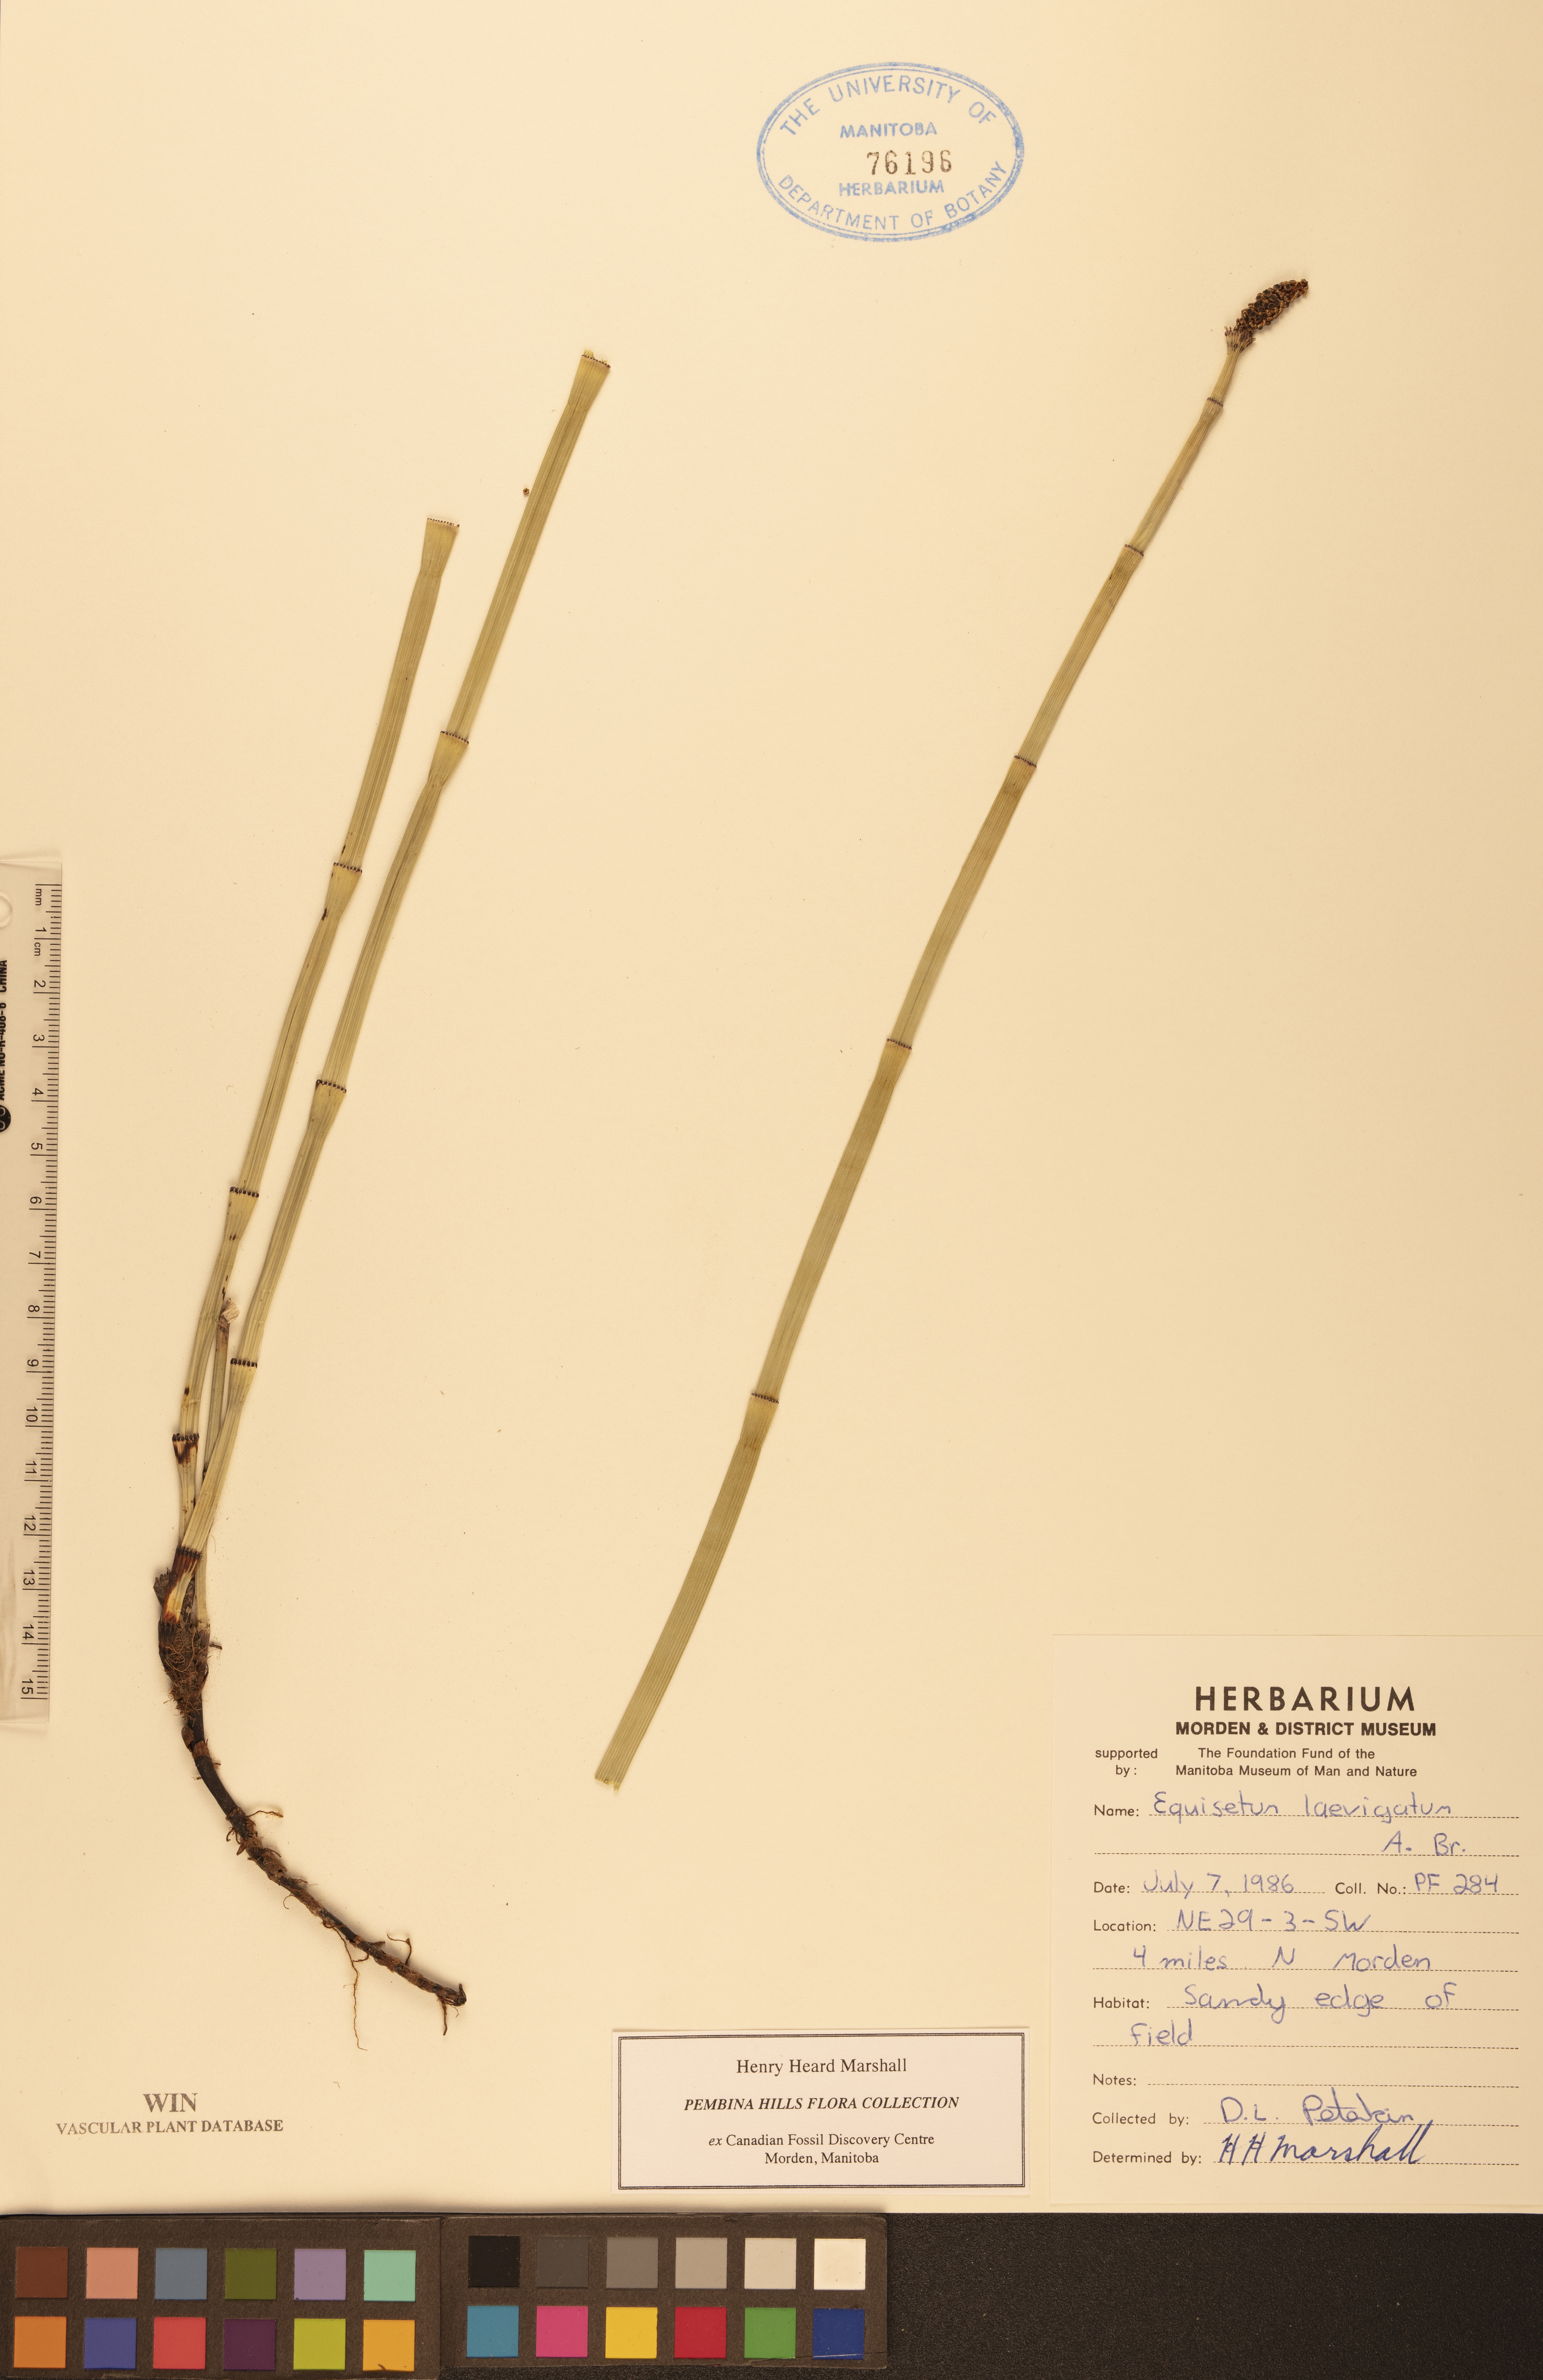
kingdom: Plantae
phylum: Tracheophyta
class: Polypodiopsida
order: Equisetales
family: Equisetaceae
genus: Equisetum
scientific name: Equisetum laevigatum
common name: Smooth scouring-rush
